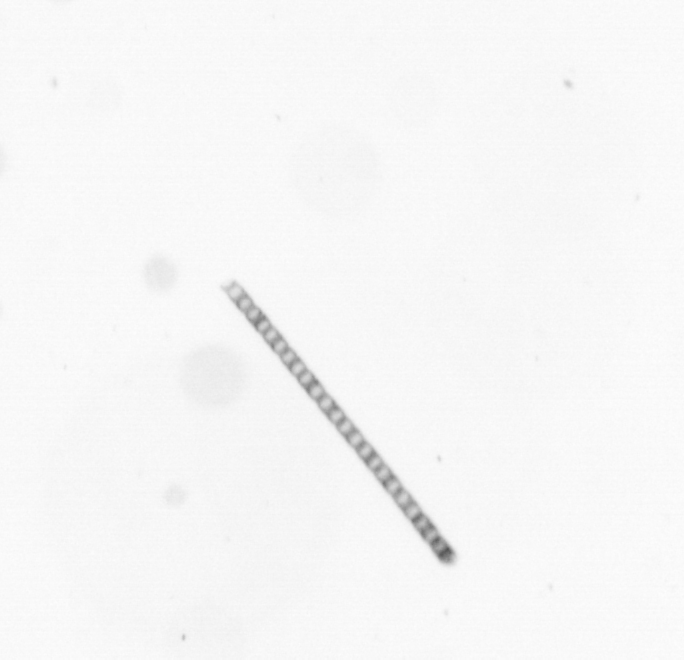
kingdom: Chromista
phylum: Ochrophyta
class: Bacillariophyceae
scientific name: Bacillariophyceae
